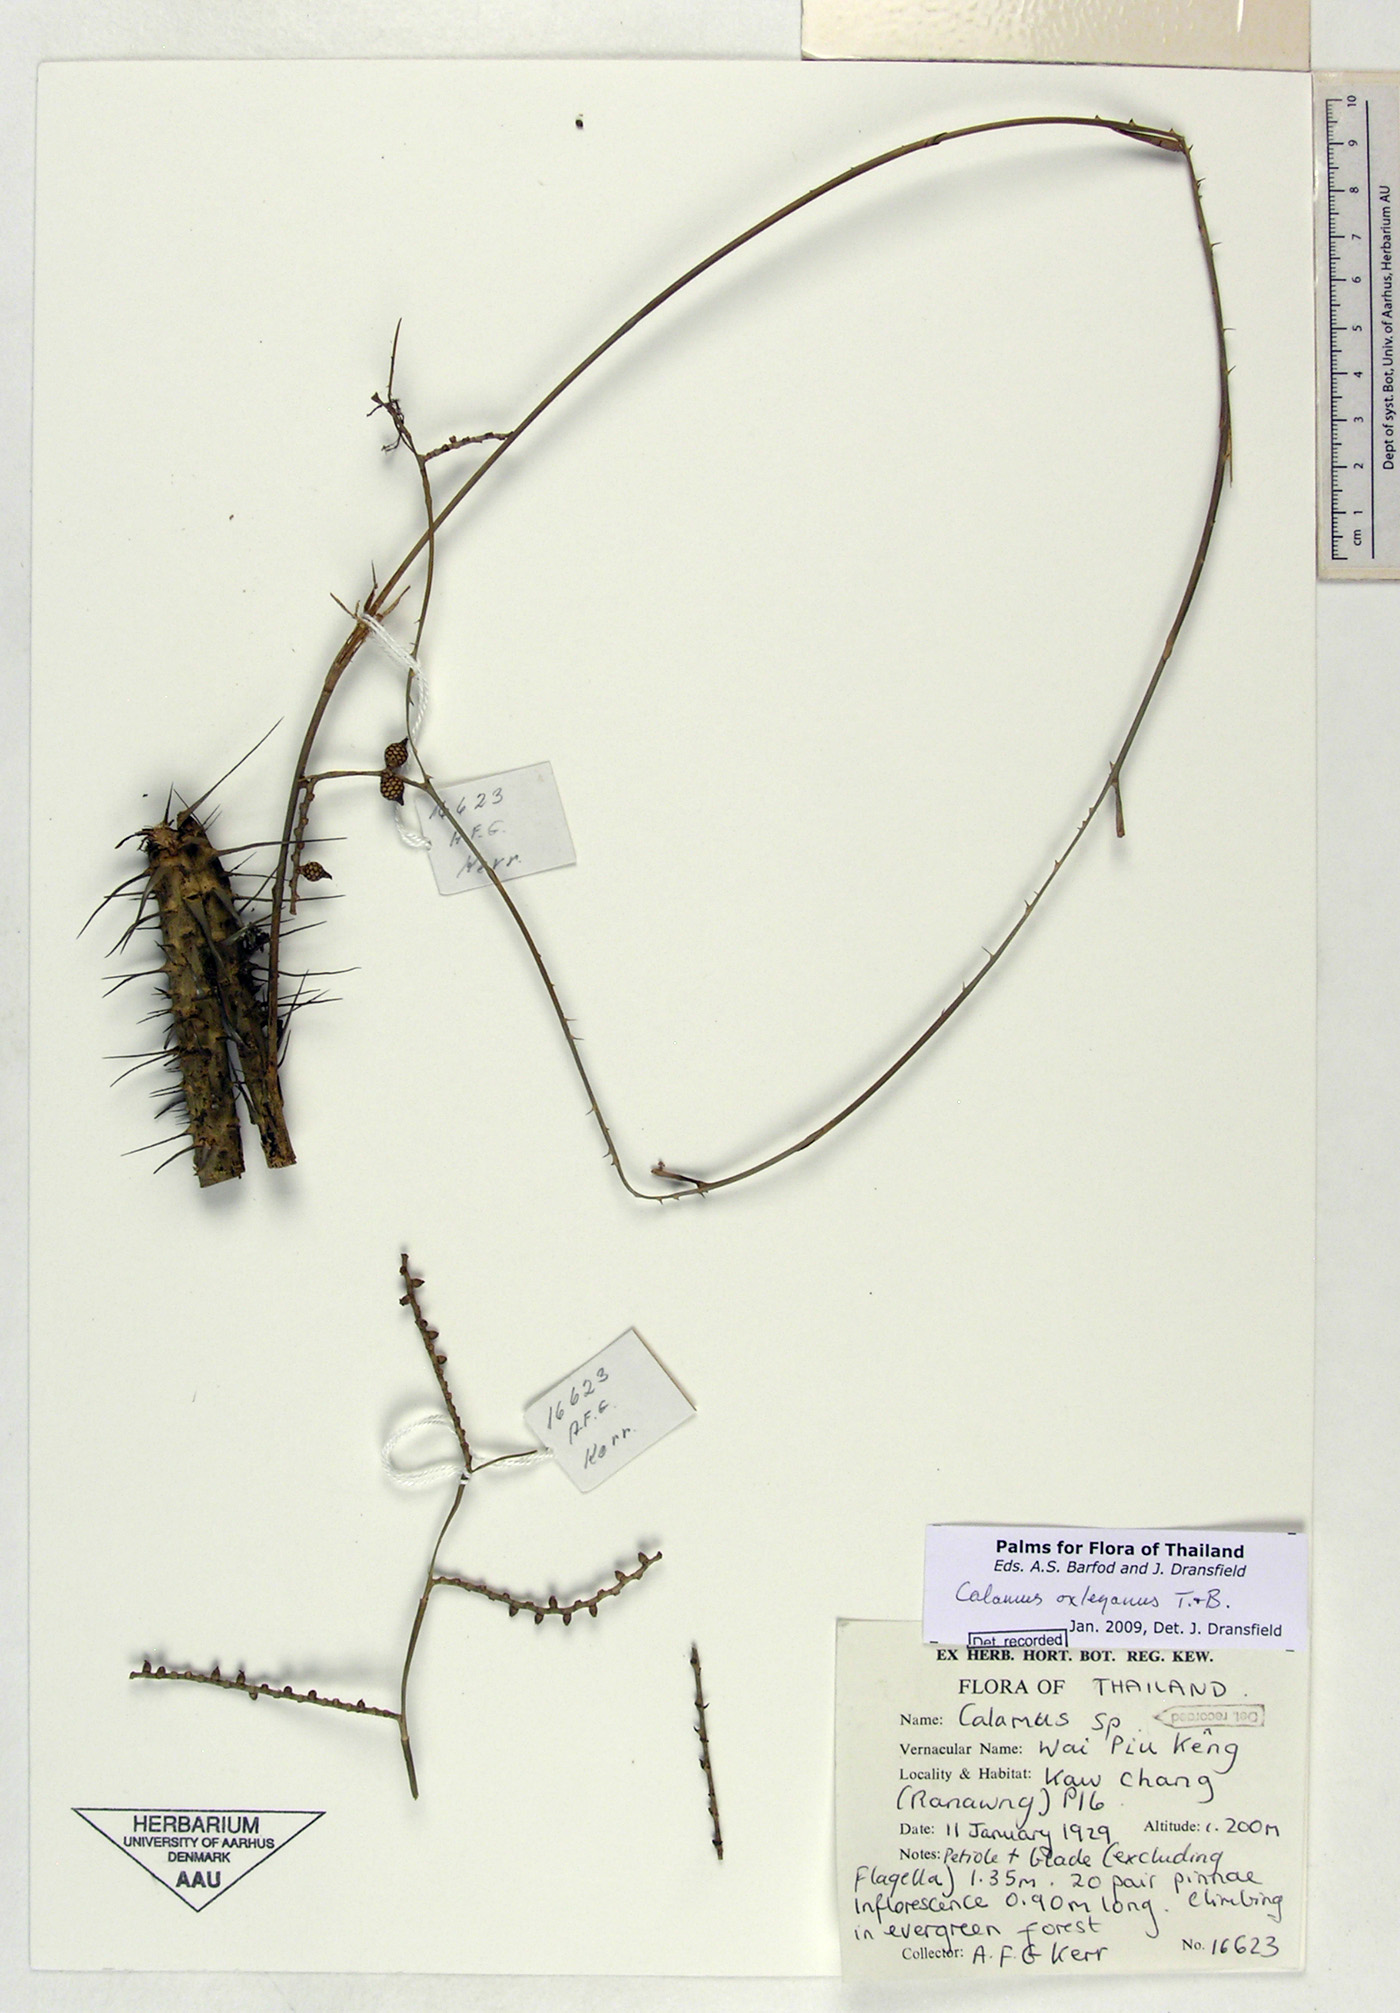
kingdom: Plantae
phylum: Tracheophyta
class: Liliopsida
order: Arecales
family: Arecaceae
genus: Calamus
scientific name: Calamus oxleyanus
